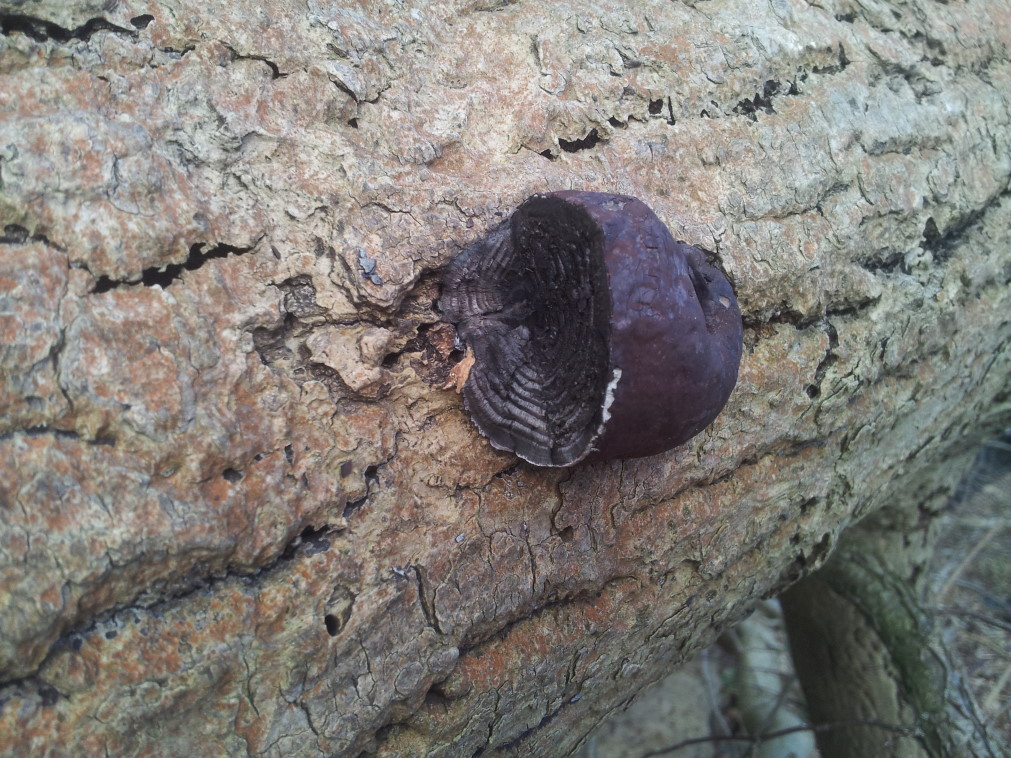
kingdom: Fungi
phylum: Ascomycota
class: Sordariomycetes
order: Xylariales
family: Hypoxylaceae
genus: Daldinia
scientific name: Daldinia concentrica
